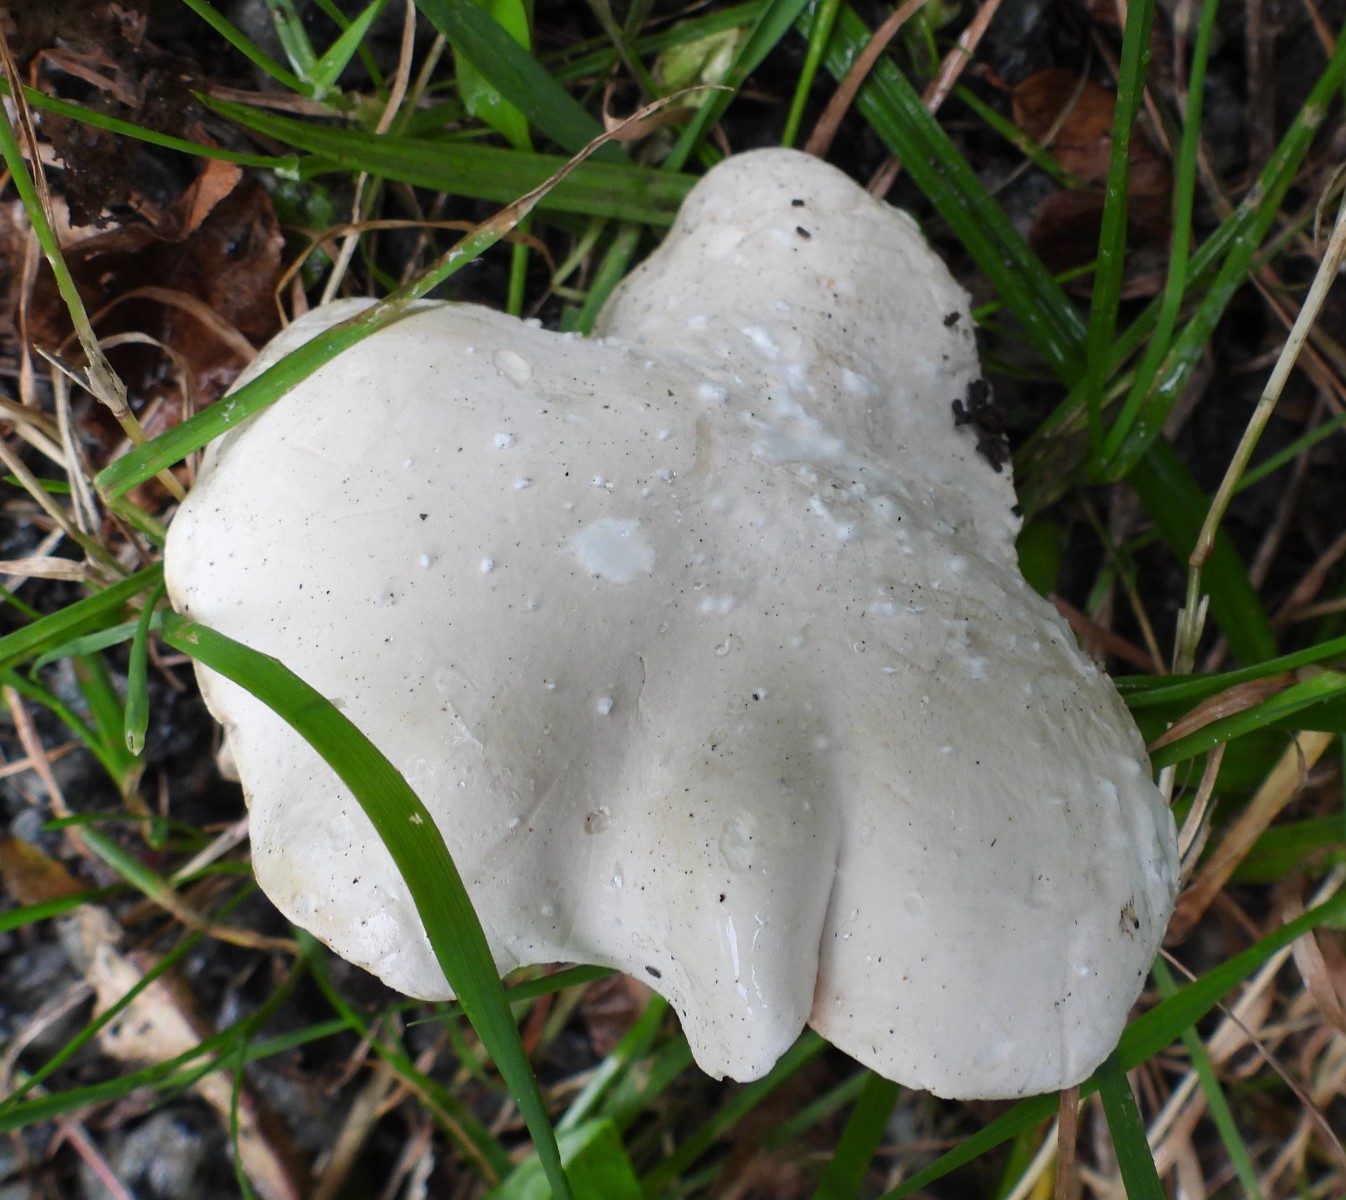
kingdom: Fungi
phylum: Basidiomycota
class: Agaricomycetes
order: Agaricales
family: Entolomataceae
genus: Clitopilus
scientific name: Clitopilus prunulus
